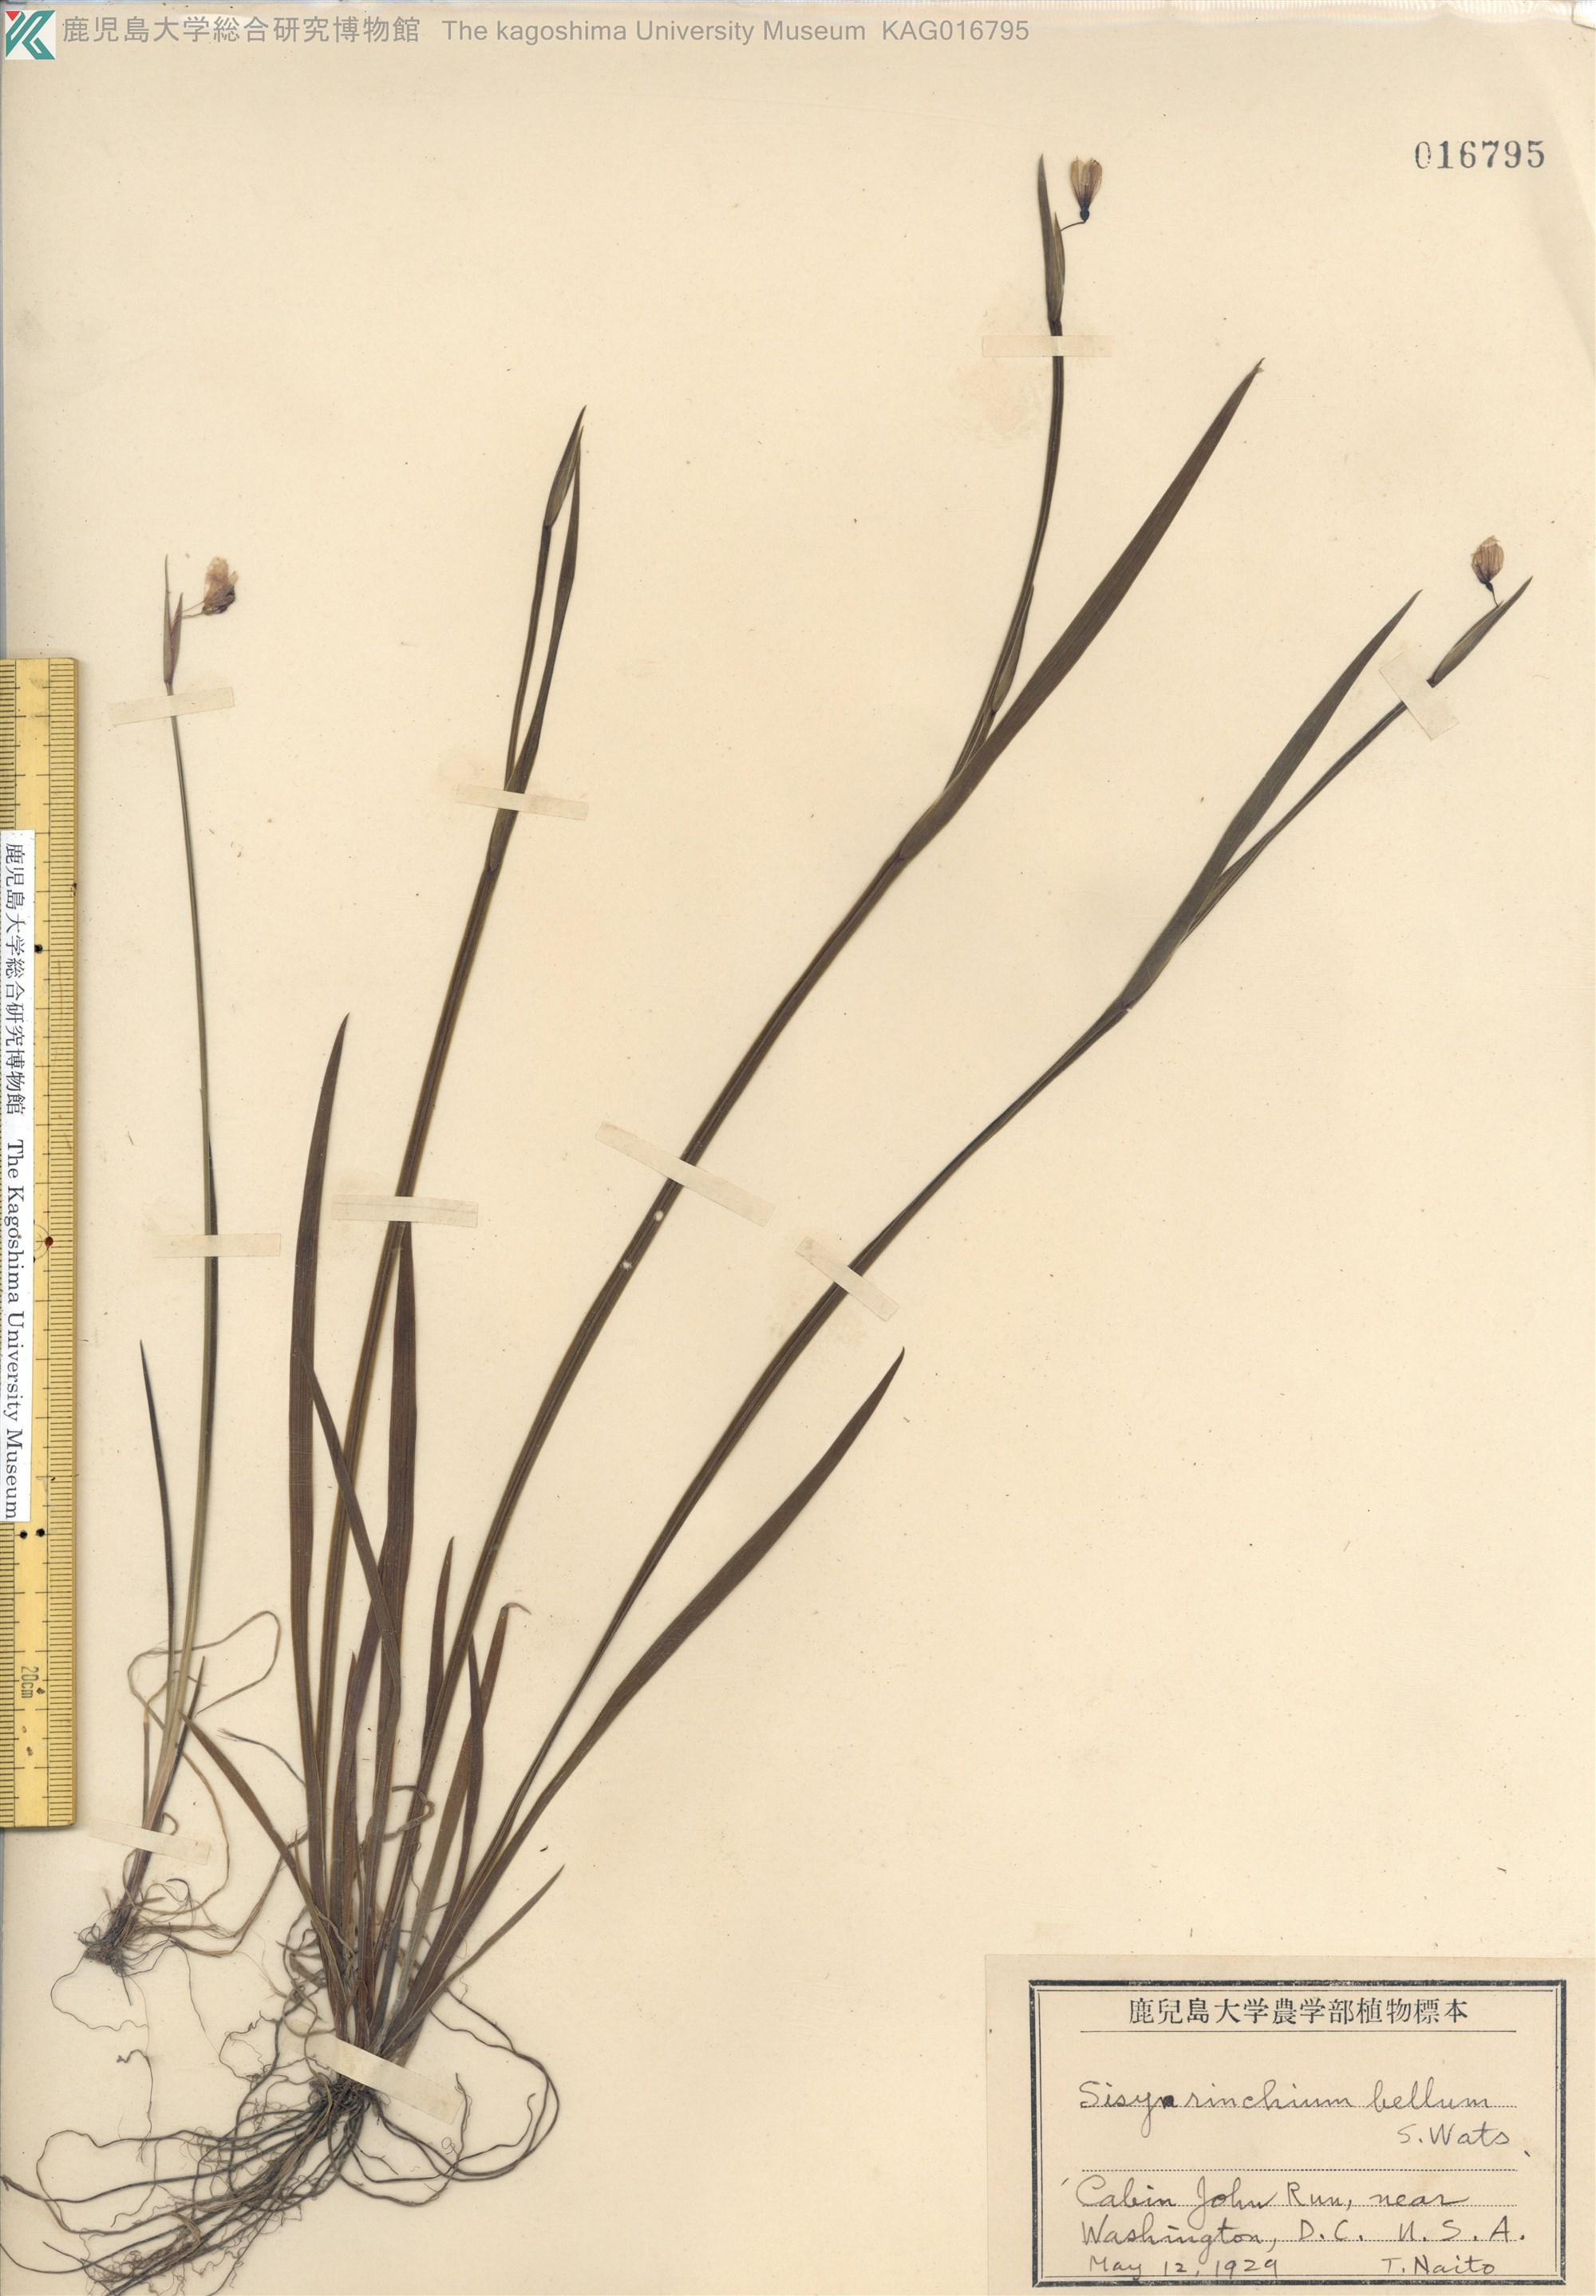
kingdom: Plantae
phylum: Tracheophyta
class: Liliopsida
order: Asparagales
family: Iridaceae
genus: Sisyrinchium
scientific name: Sisyrinchium bellum
